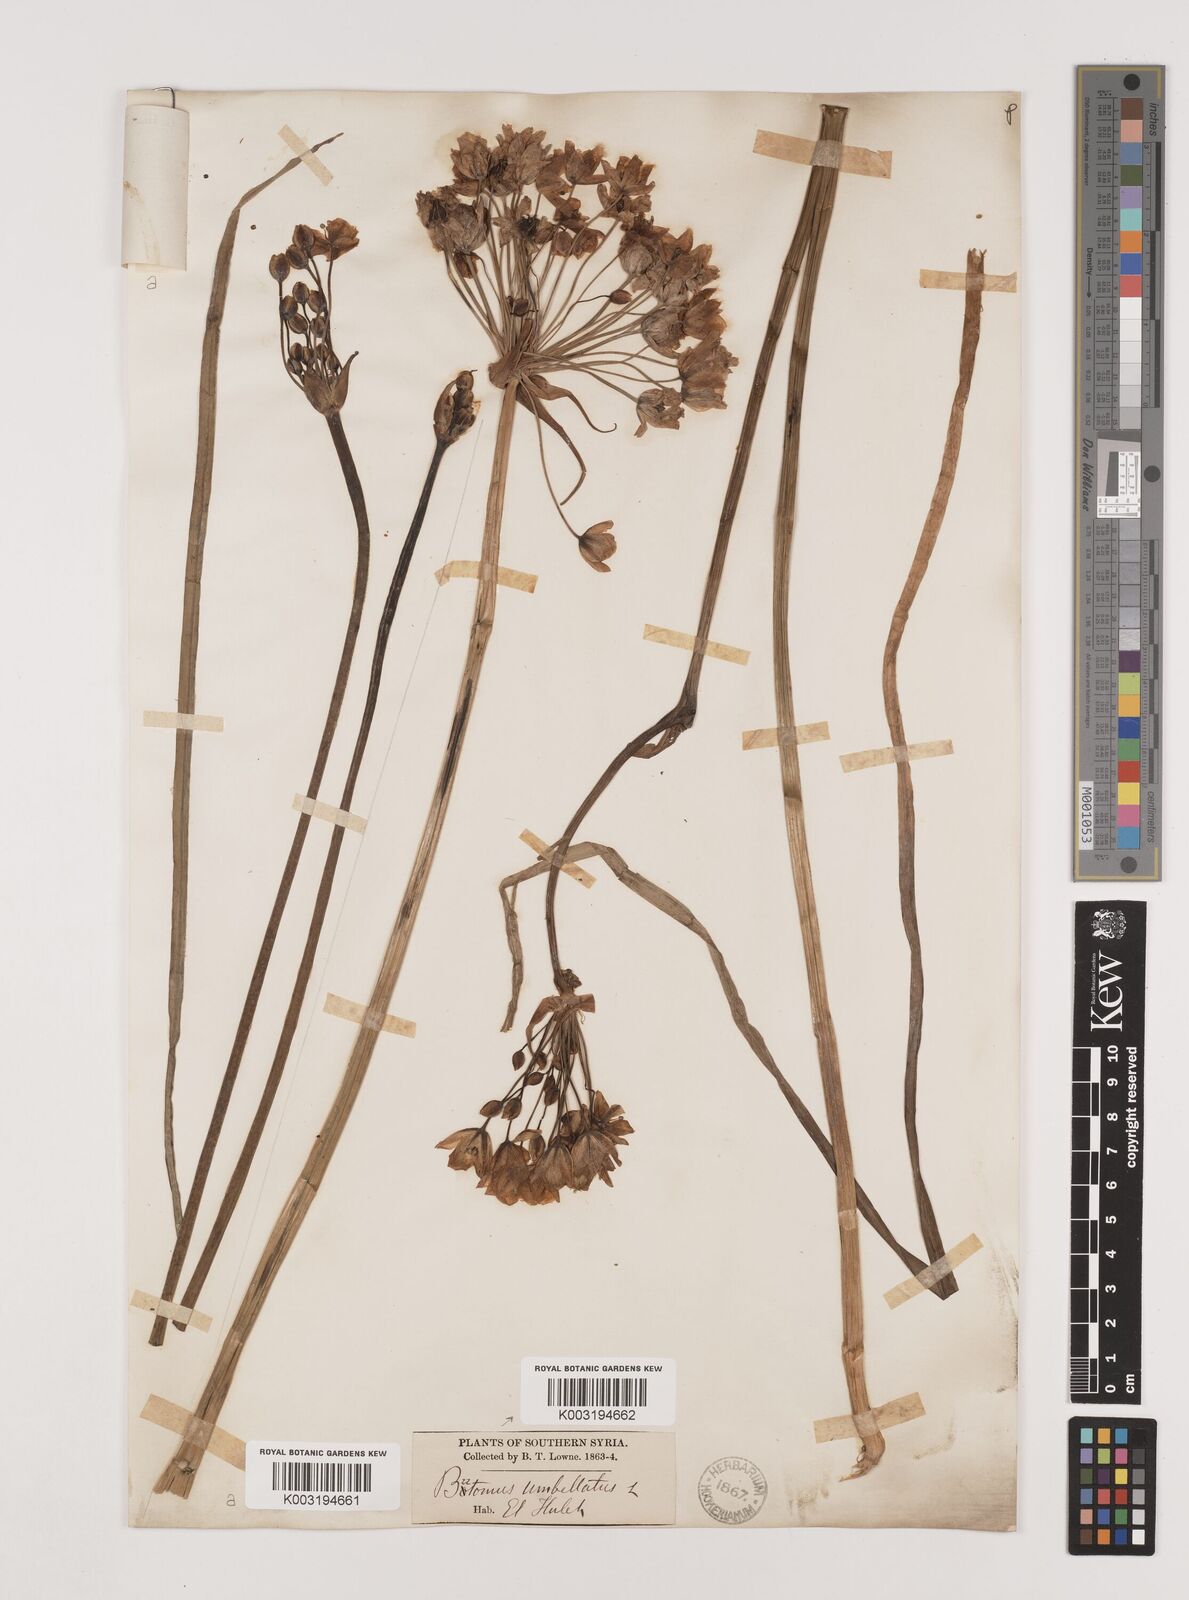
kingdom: Plantae
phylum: Tracheophyta
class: Liliopsida
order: Alismatales
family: Butomaceae
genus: Butomus
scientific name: Butomus
